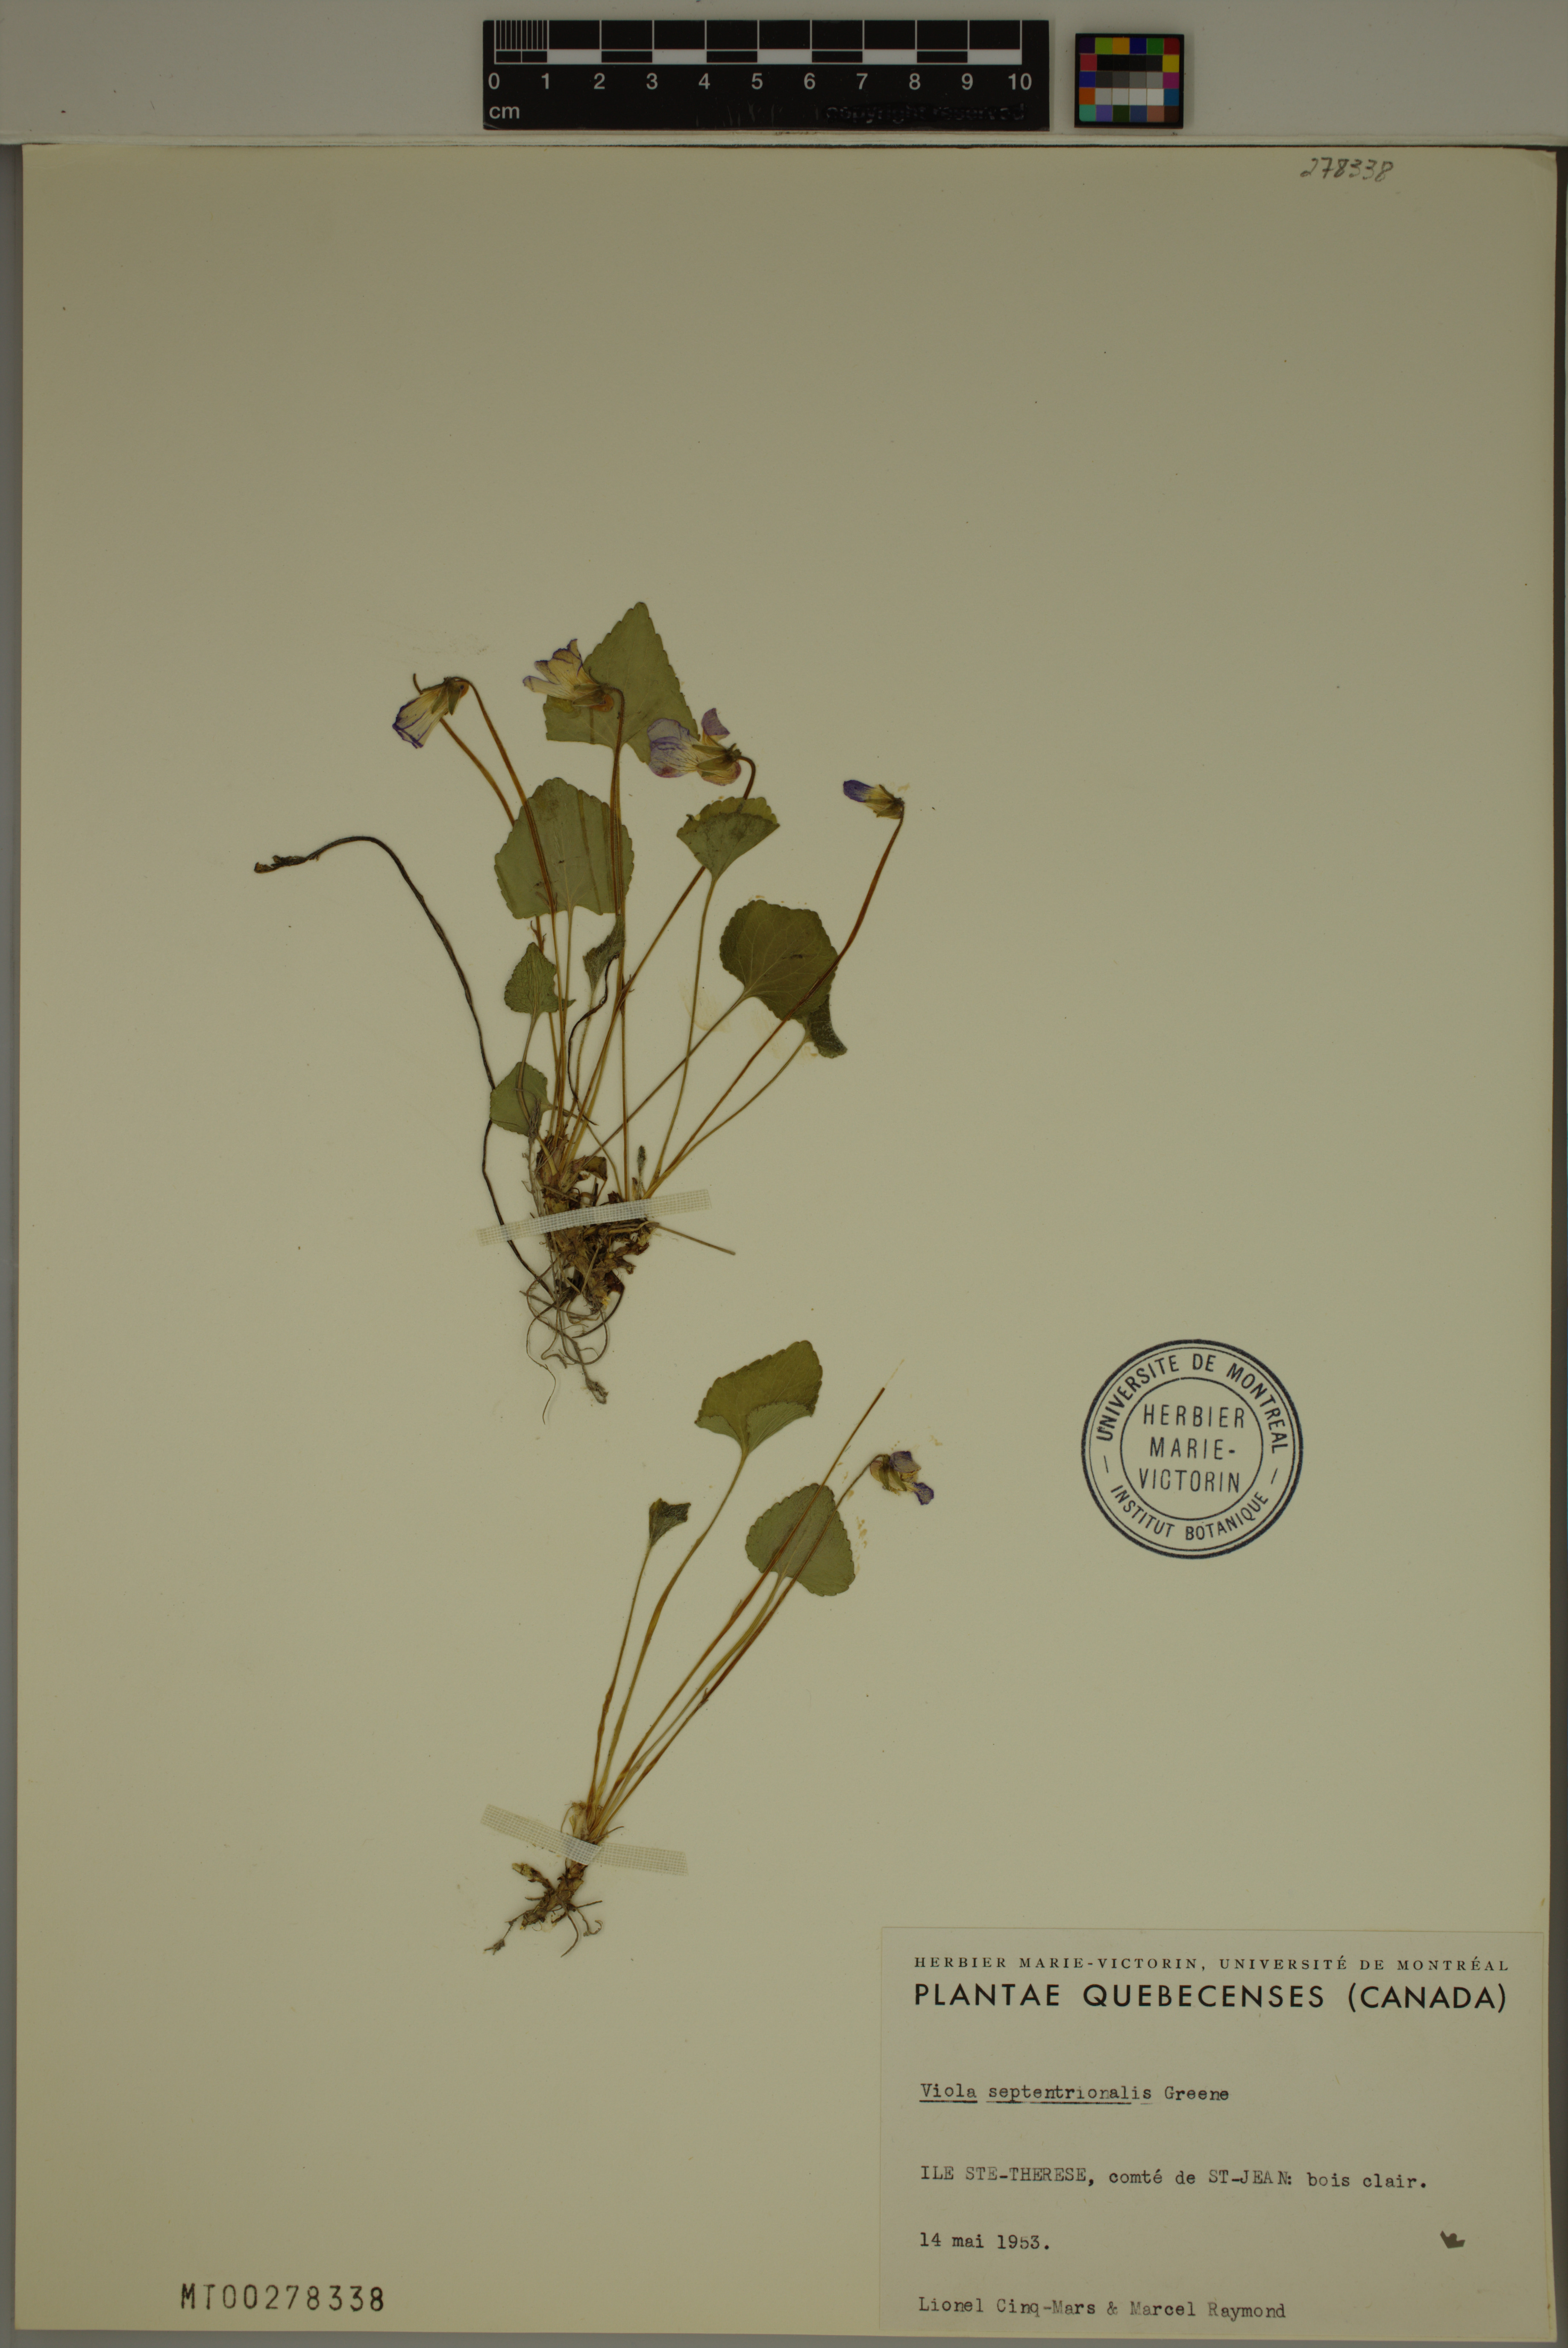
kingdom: Plantae
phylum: Tracheophyta
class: Magnoliopsida
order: Malpighiales
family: Violaceae
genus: Viola
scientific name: Viola septentrionalis
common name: Northern woodland violet
